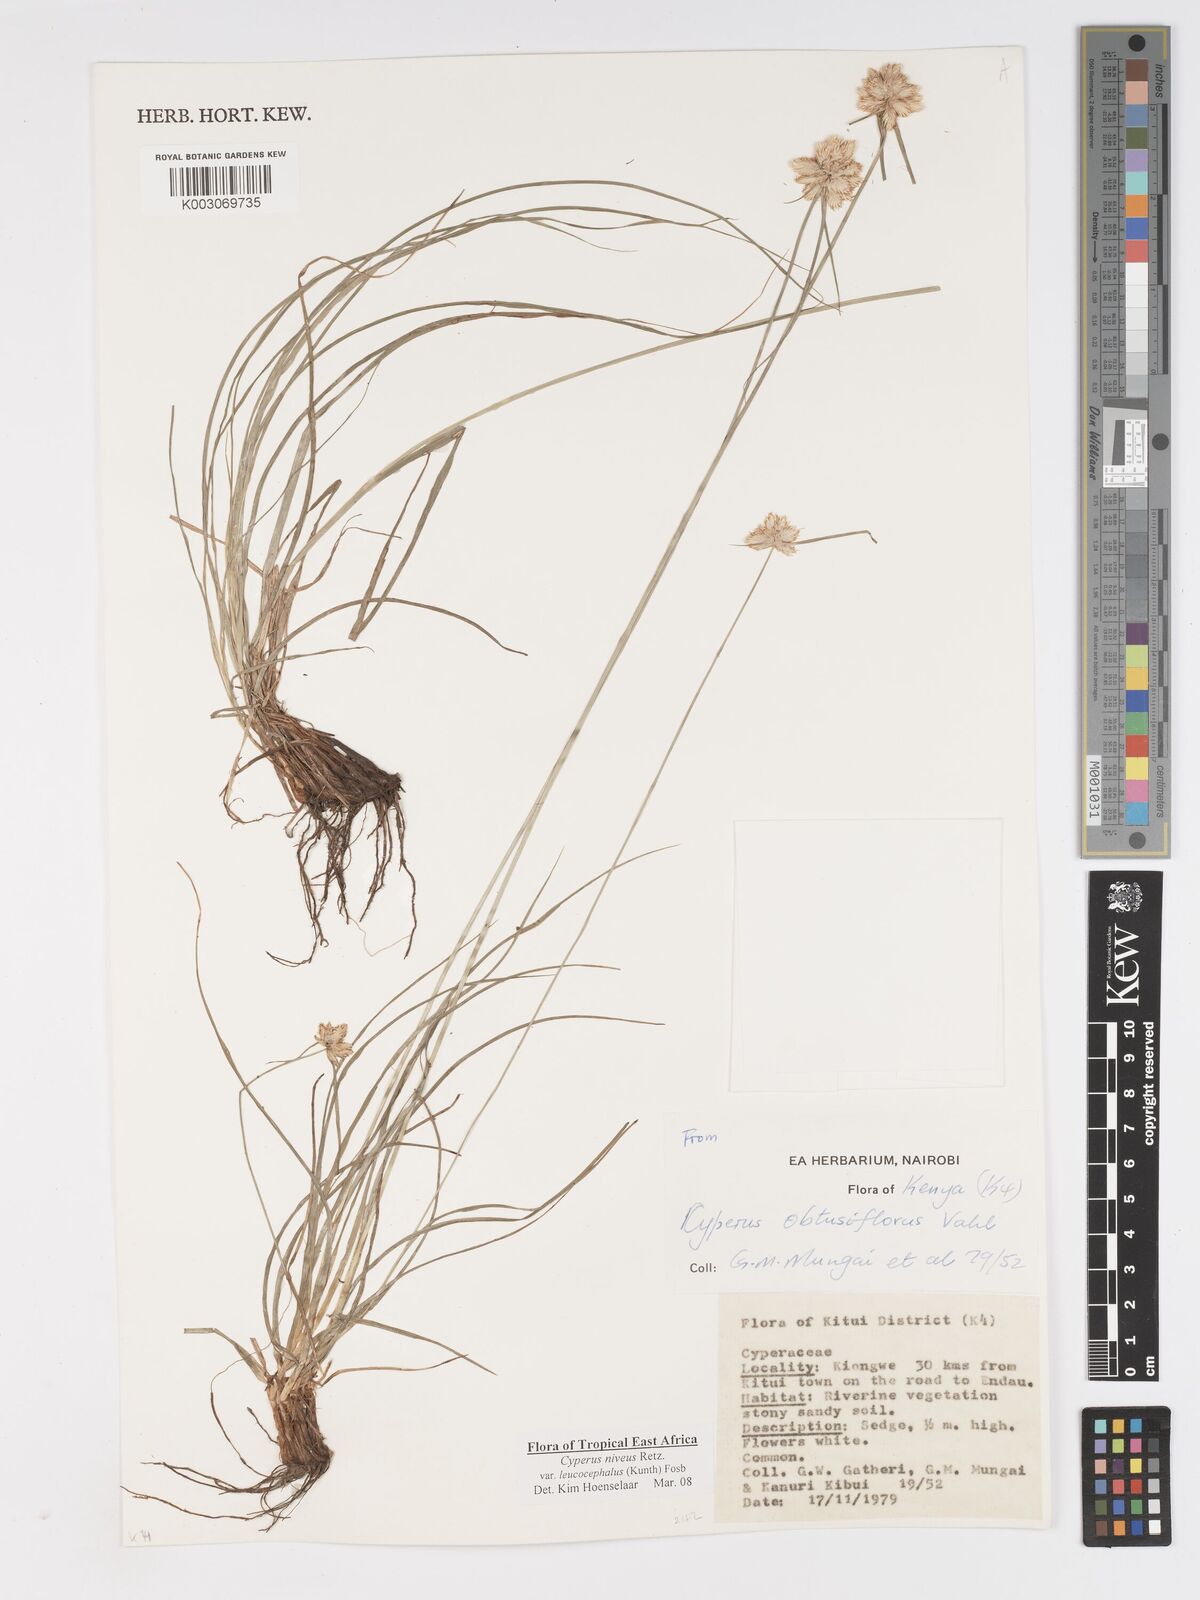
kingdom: Plantae
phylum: Tracheophyta
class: Liliopsida
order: Poales
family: Cyperaceae
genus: Cyperus
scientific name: Cyperus niveus
